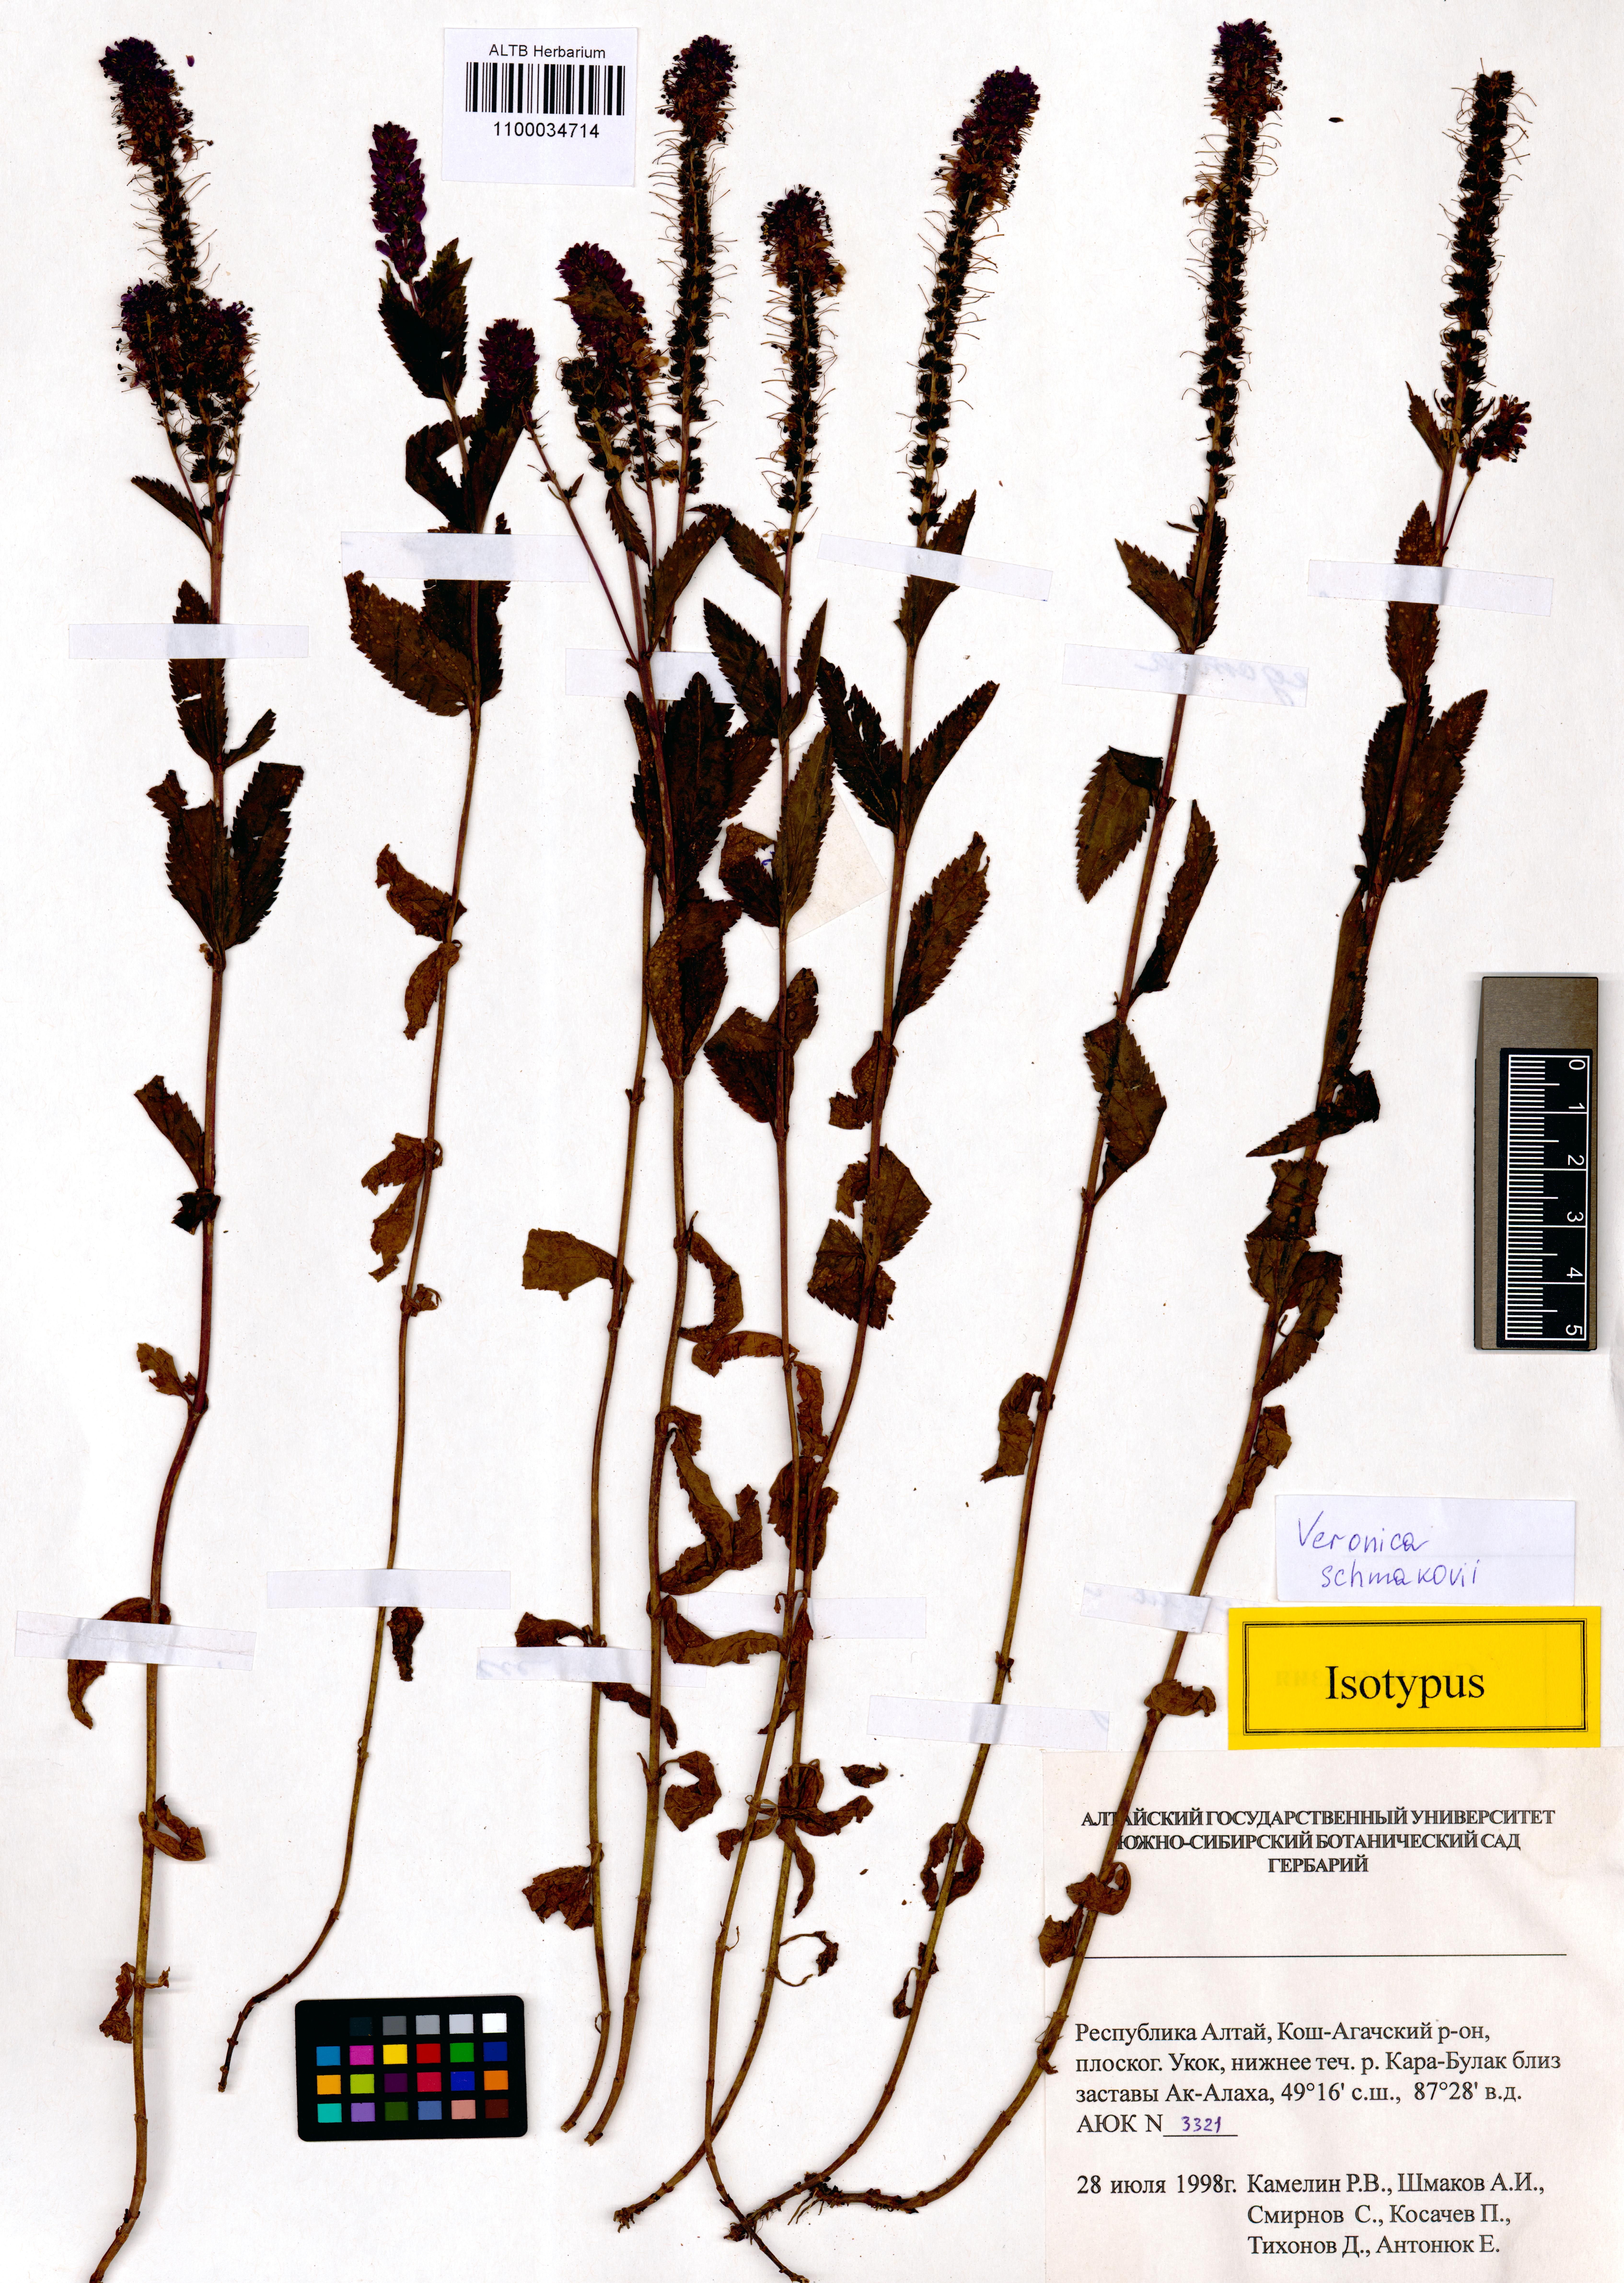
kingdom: Plantae
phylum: Tracheophyta
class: Magnoliopsida
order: Lamiales
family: Plantaginaceae
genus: Veronica
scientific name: Veronica schmakovii
